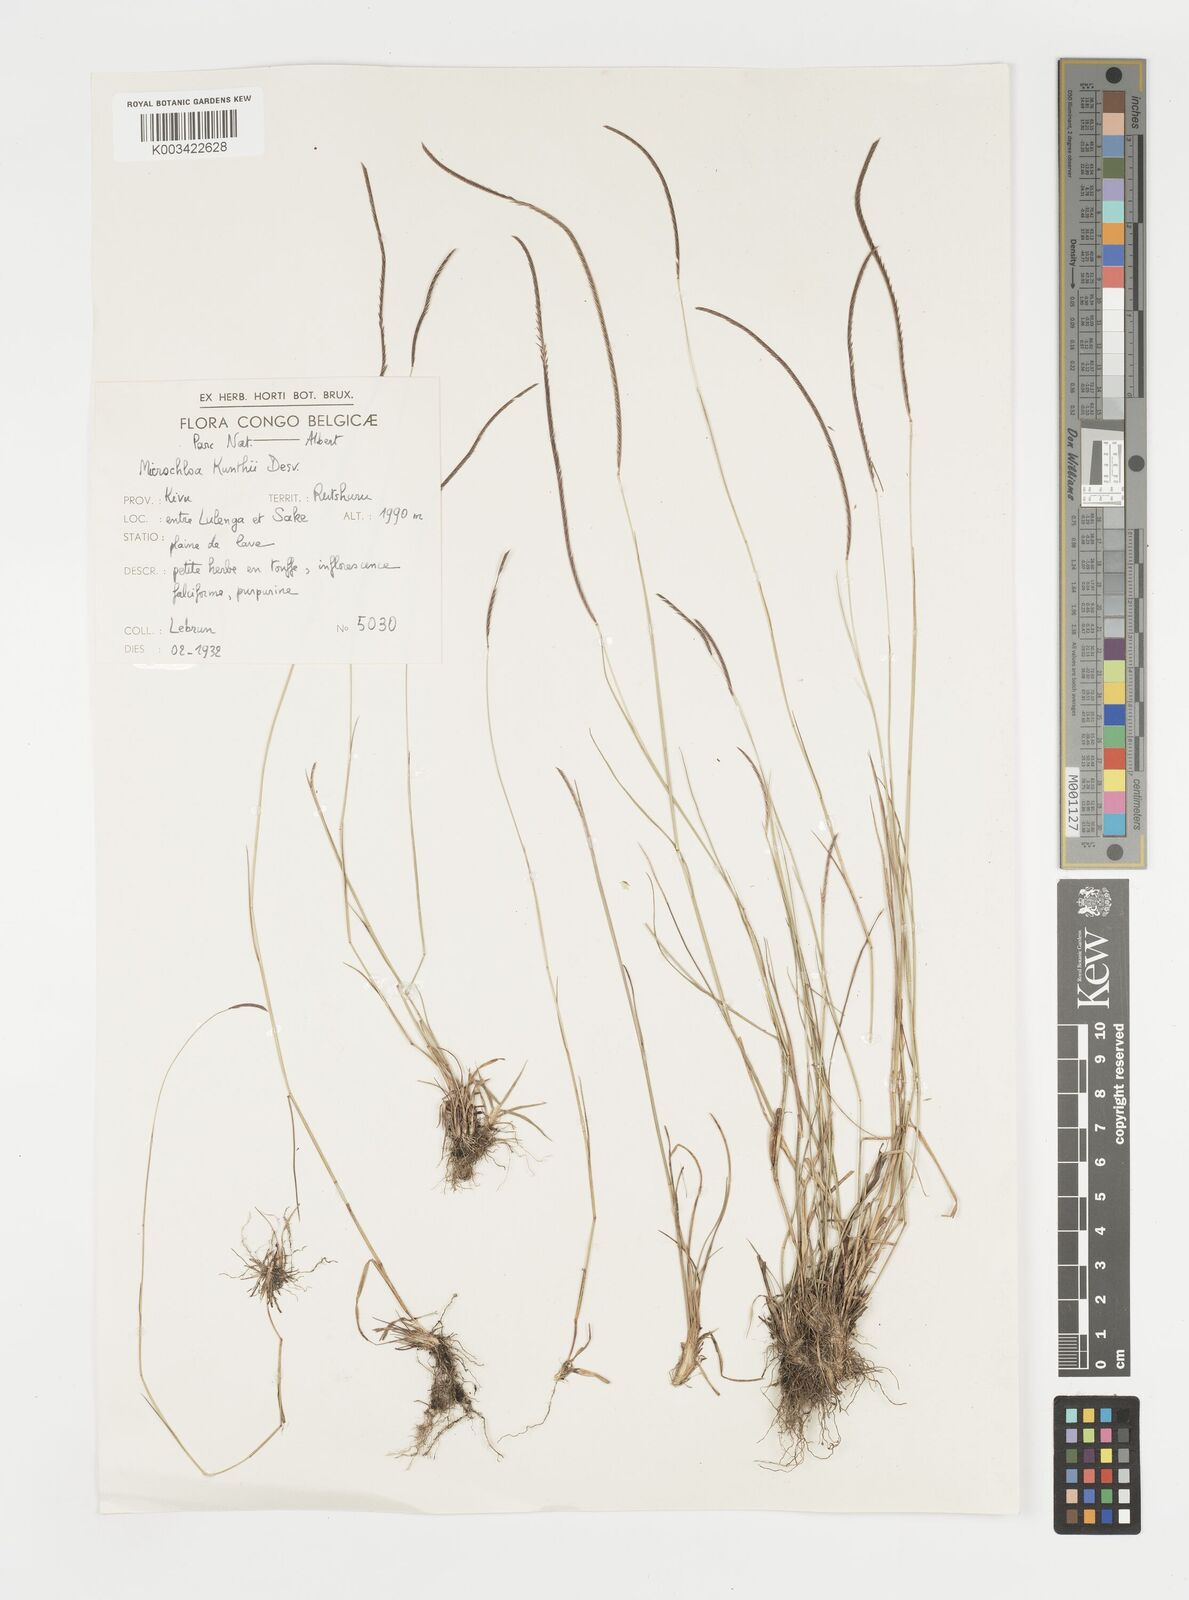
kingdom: Plantae
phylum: Tracheophyta
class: Liliopsida
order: Poales
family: Poaceae
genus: Microchloa
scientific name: Microchloa kunthii
